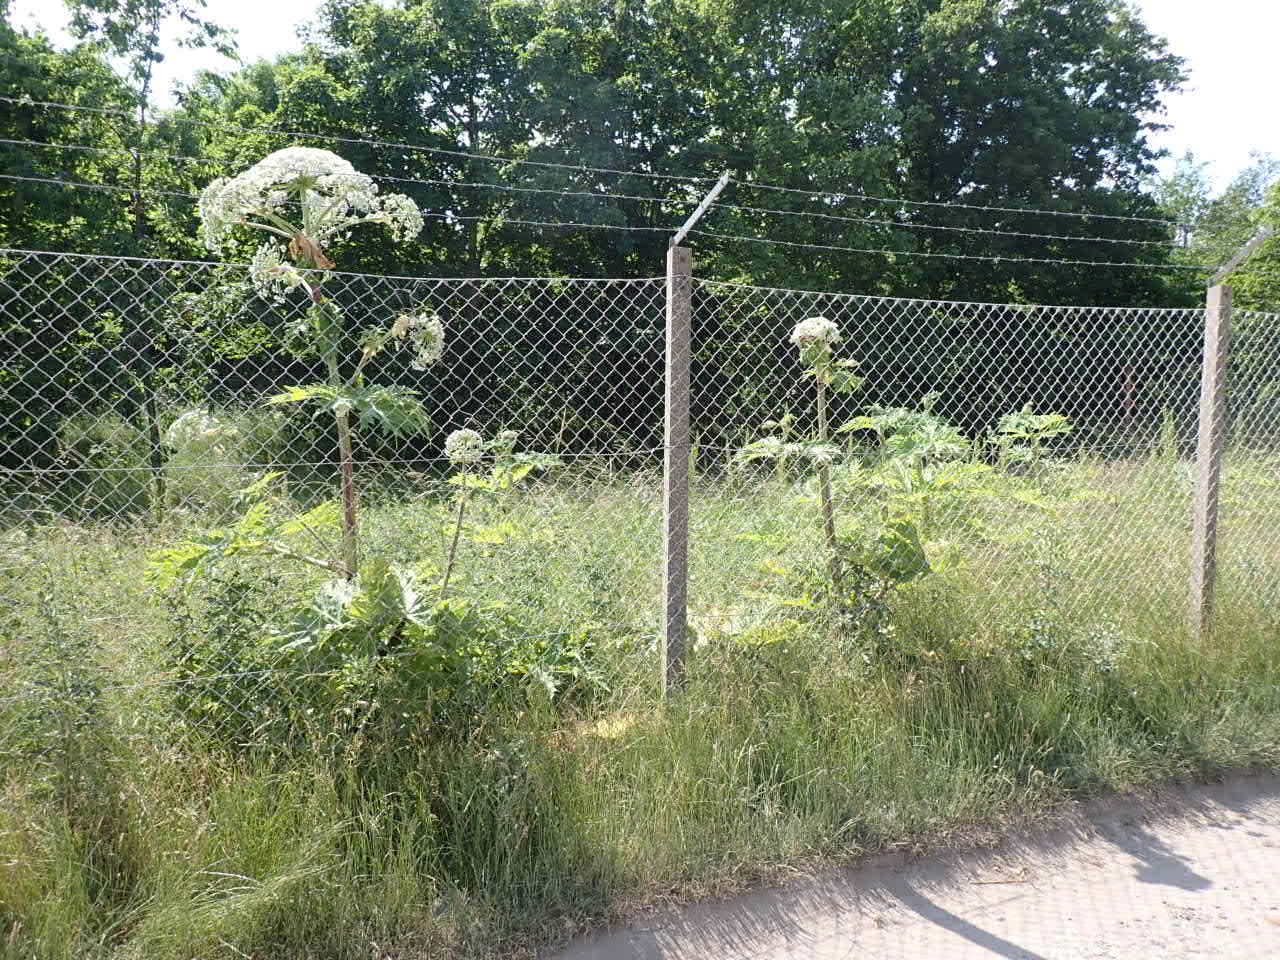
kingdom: Plantae
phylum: Tracheophyta
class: Magnoliopsida
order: Apiales
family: Apiaceae
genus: Heracleum
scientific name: Heracleum mantegazzianum
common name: Kæmpe-bjørneklo
